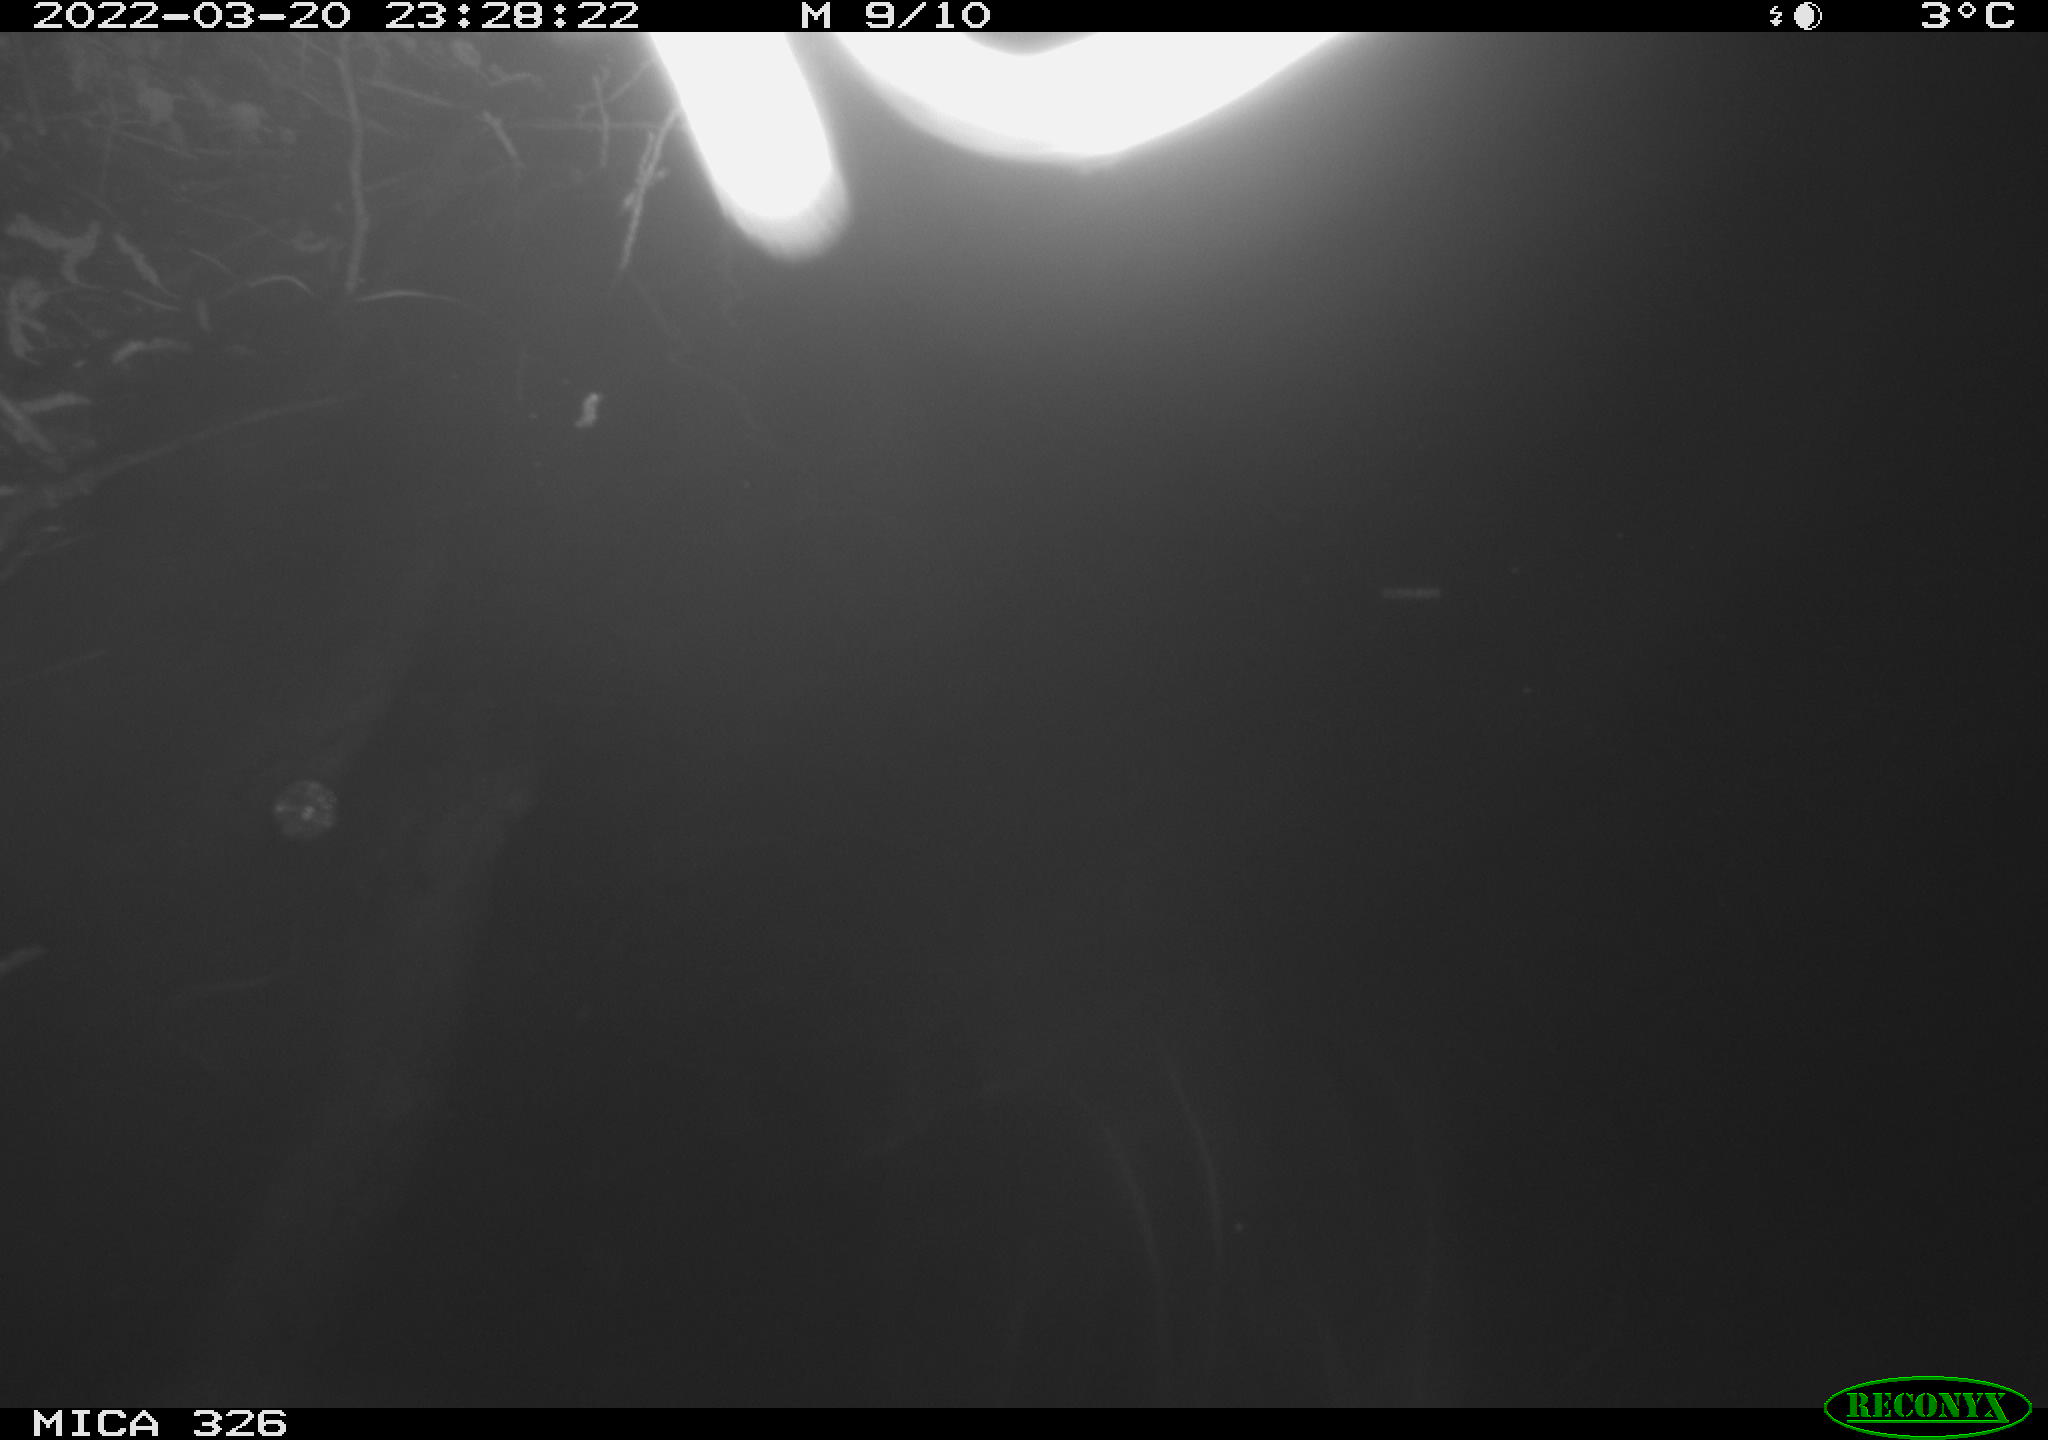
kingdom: Animalia
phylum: Chordata
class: Mammalia
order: Rodentia
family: Cricetidae
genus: Ondatra
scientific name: Ondatra zibethicus
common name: Muskrat
